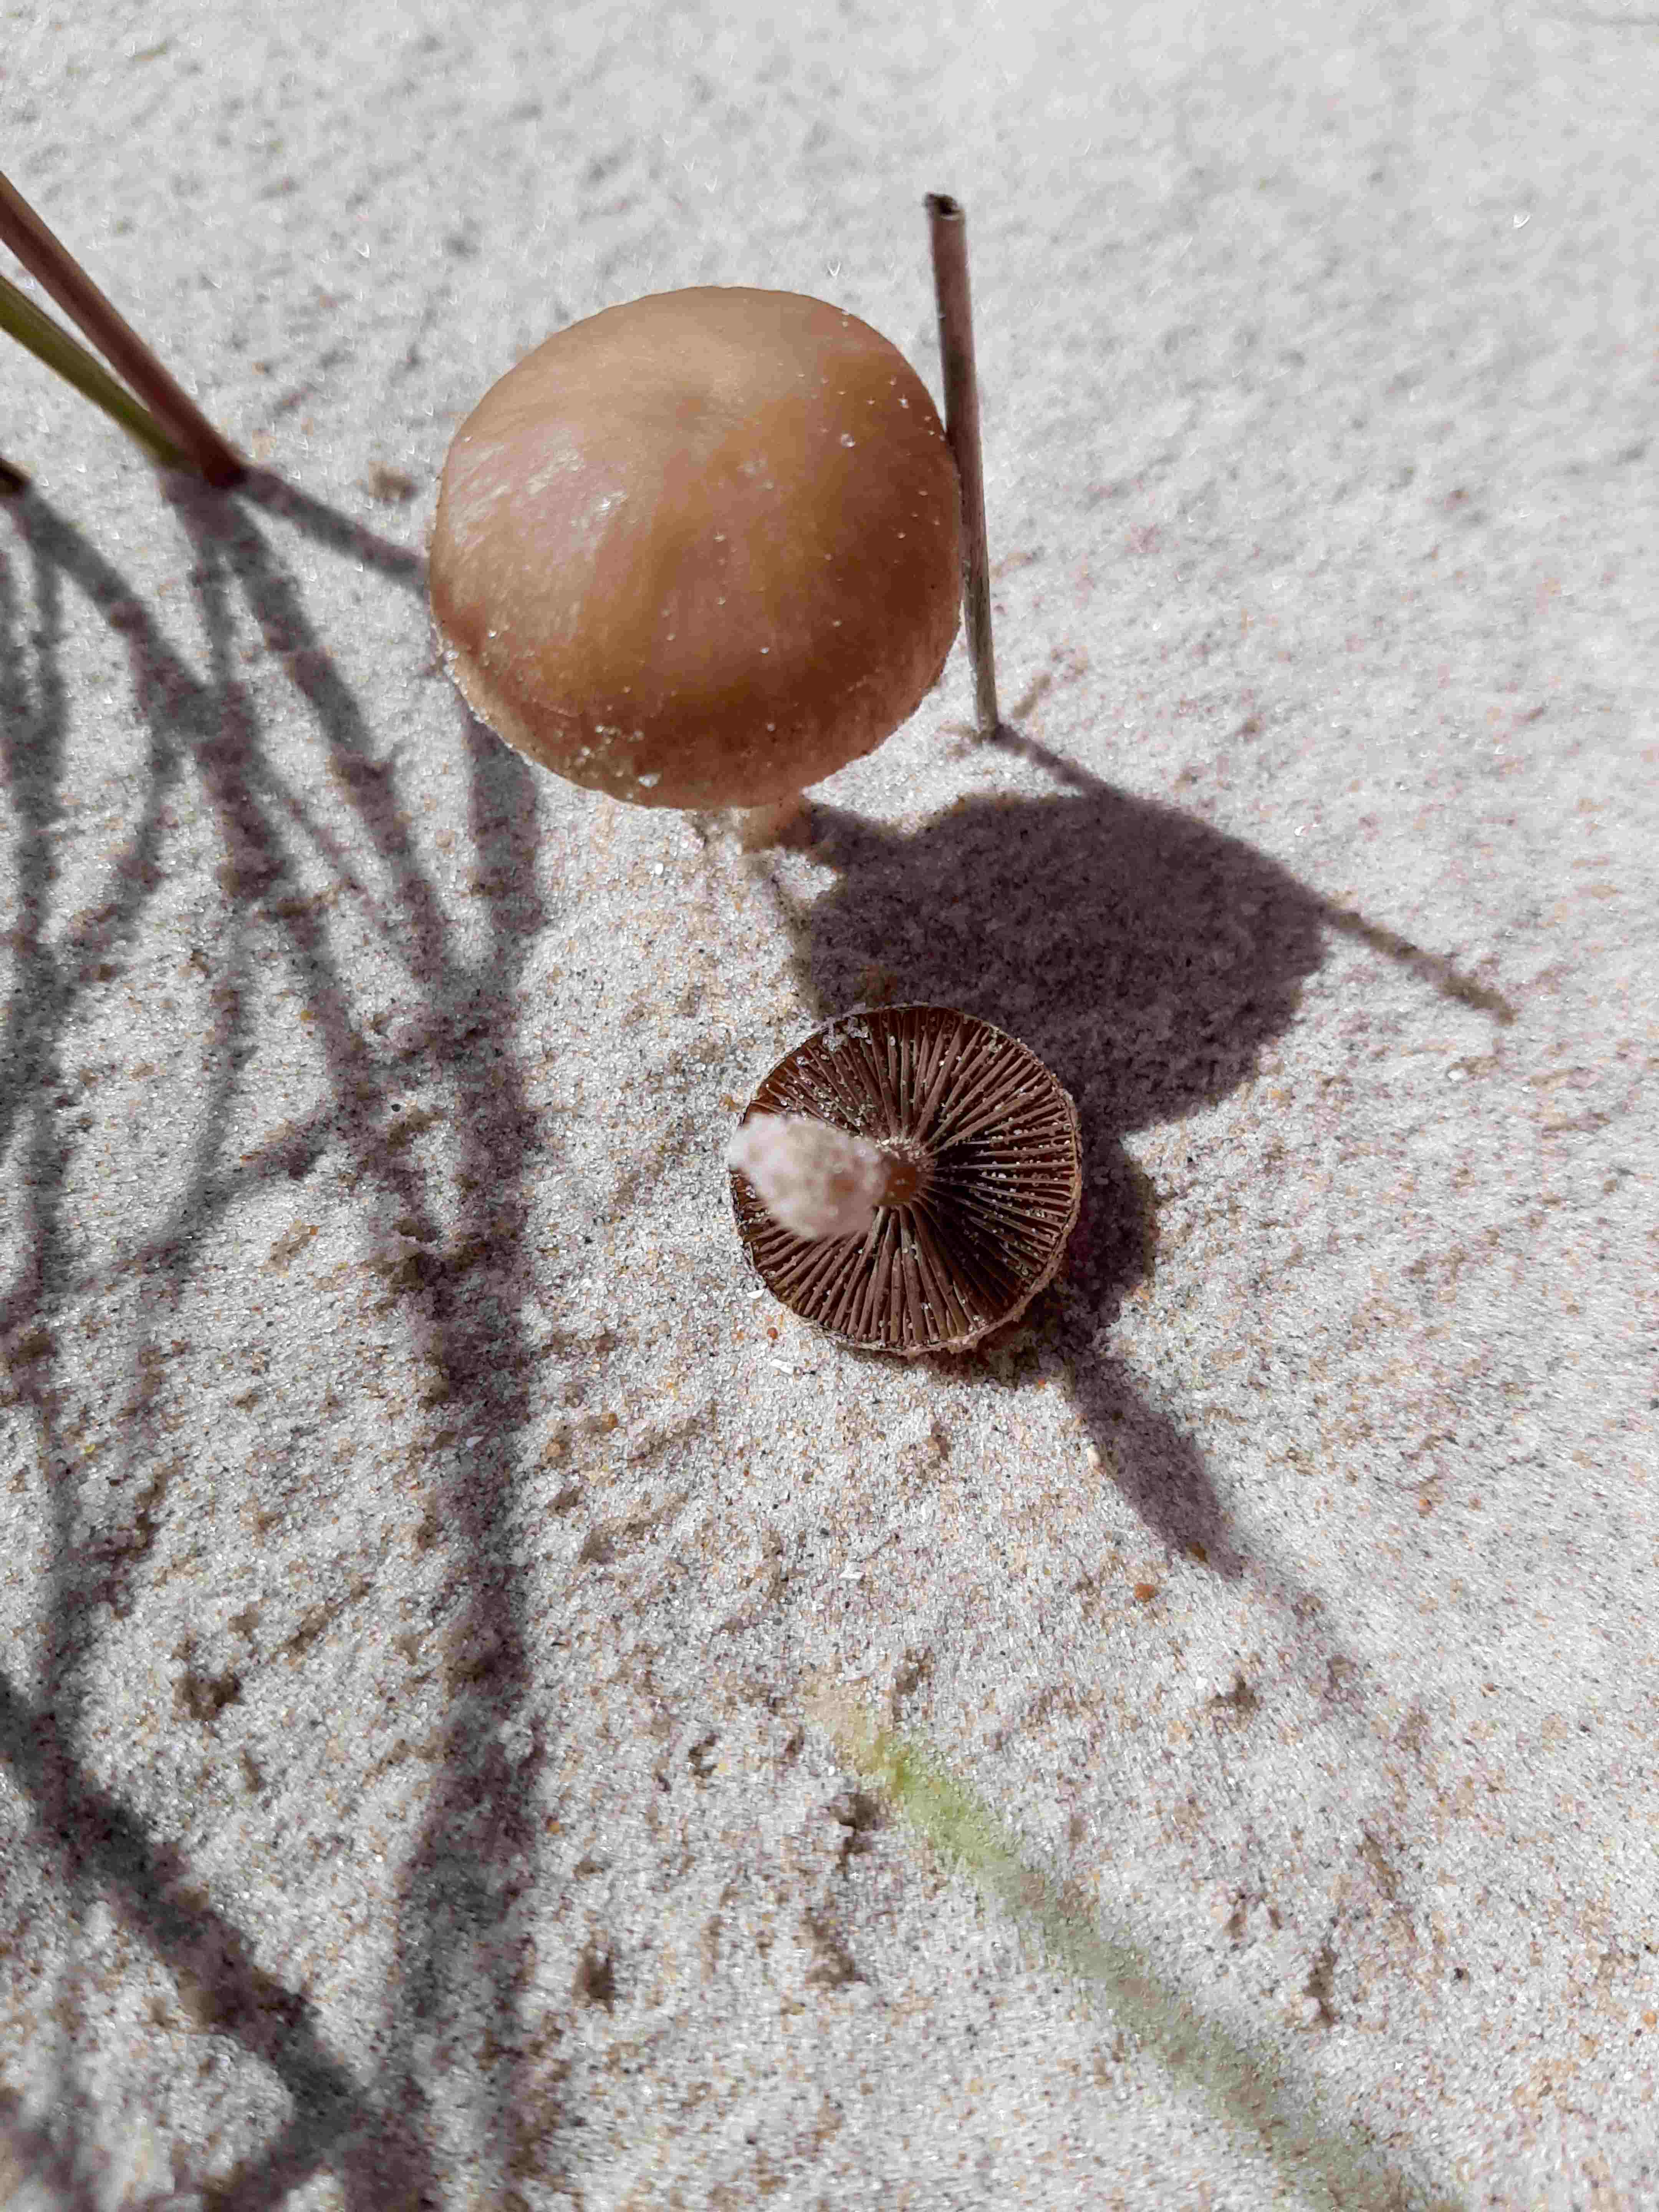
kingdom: Fungi
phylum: Basidiomycota
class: Agaricomycetes
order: Agaricales
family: Psathyrellaceae
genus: Psathyrella
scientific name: Psathyrella ammophila
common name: klit-mørkhat
